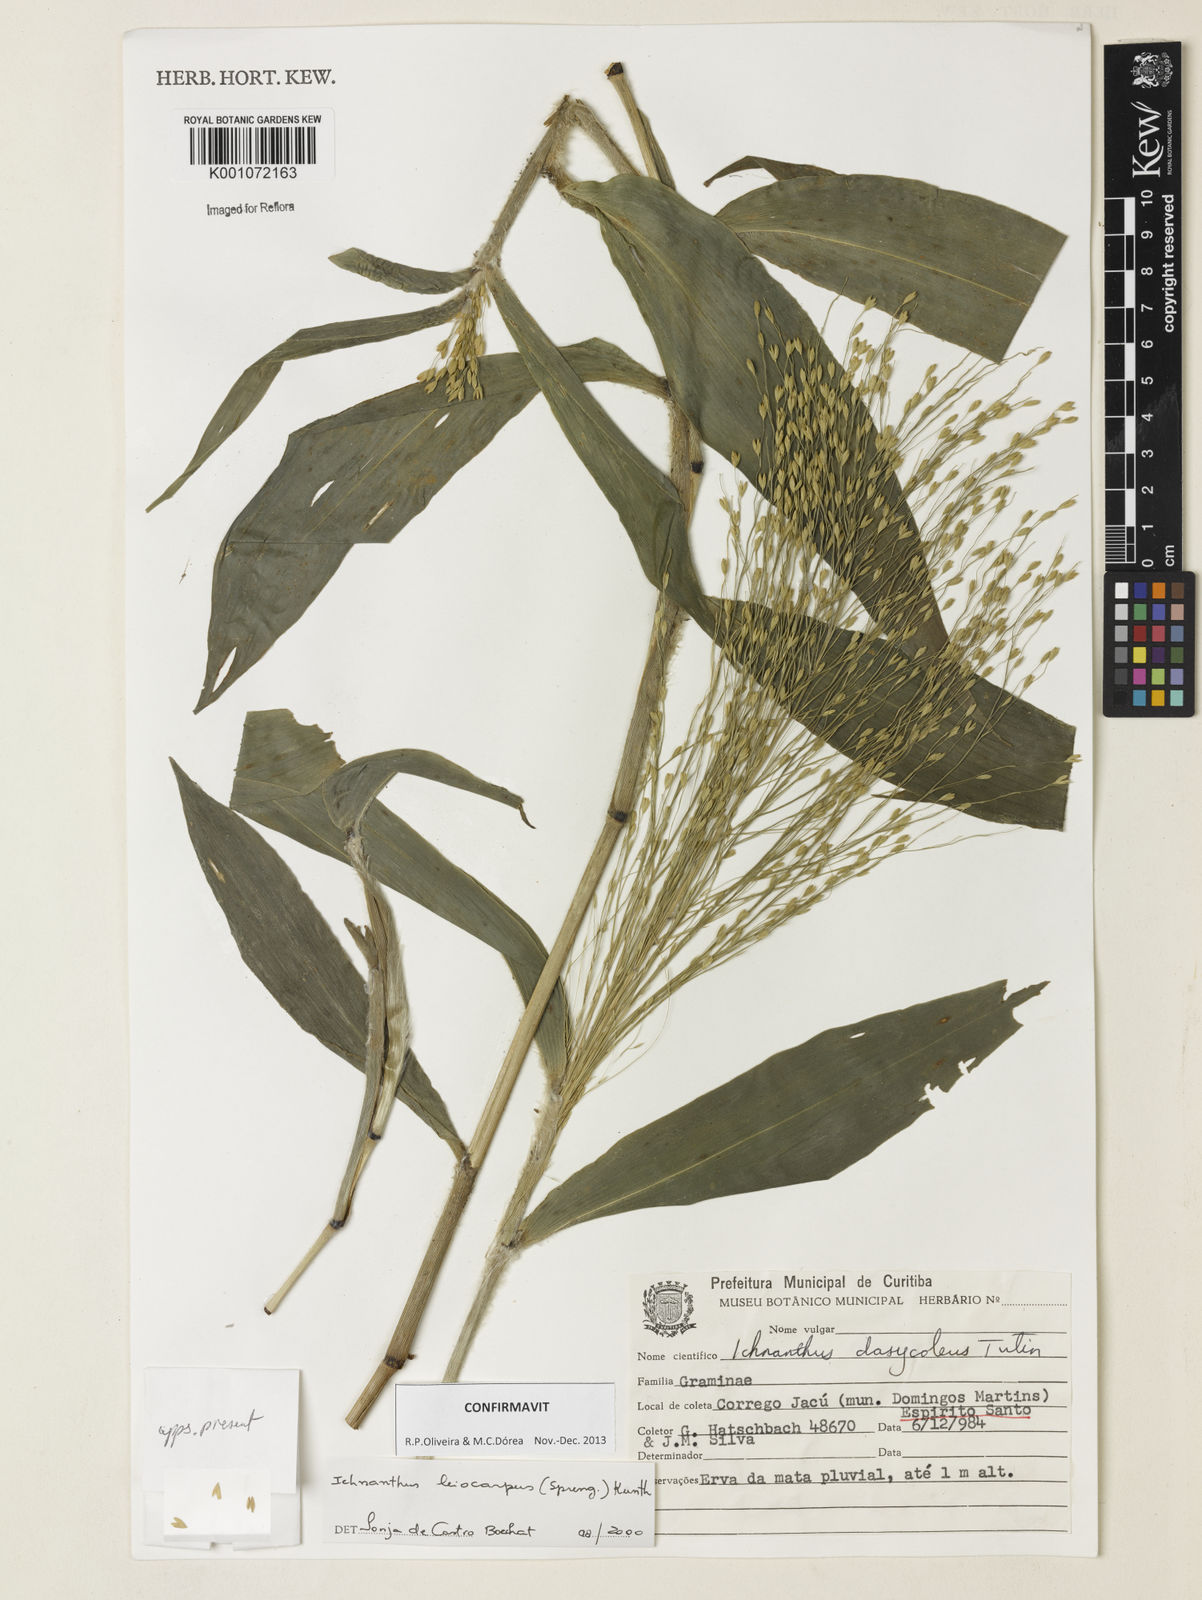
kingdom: Plantae
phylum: Tracheophyta
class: Liliopsida
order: Poales
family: Poaceae
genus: Ichnanthus
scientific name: Ichnanthus leiocarpus
